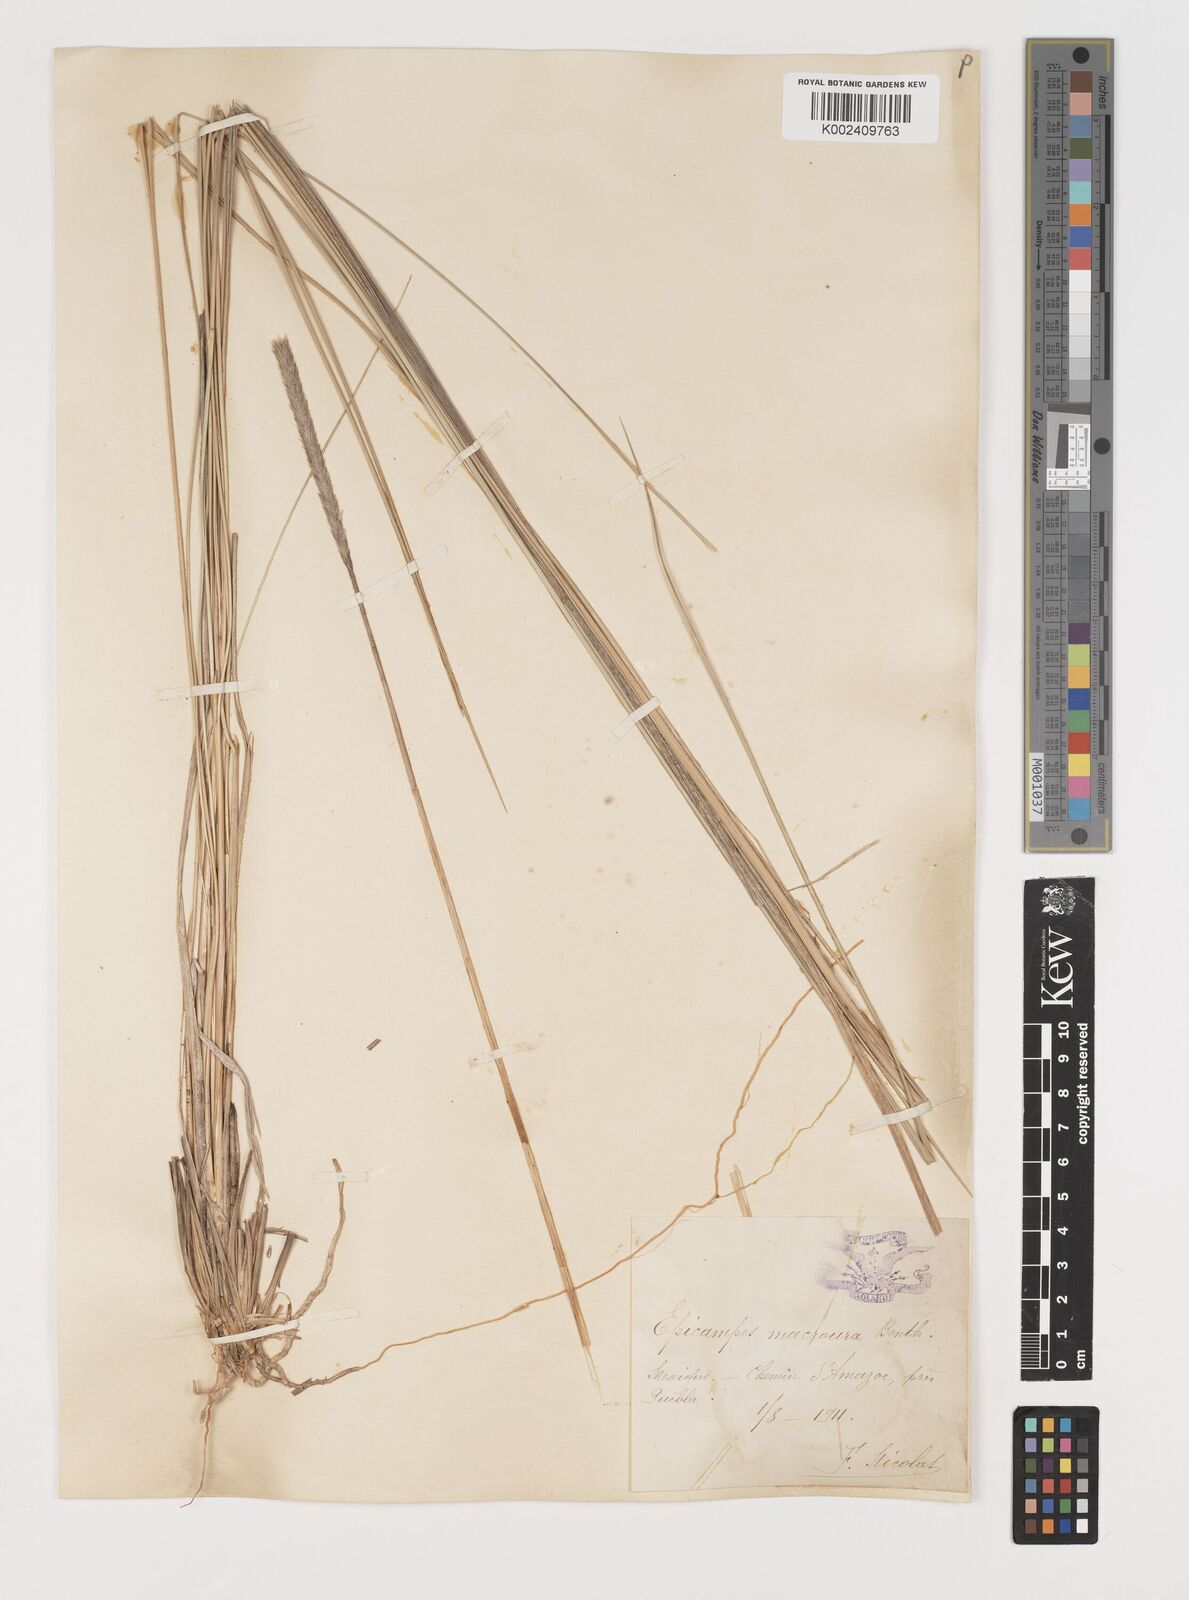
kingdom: Plantae
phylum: Tracheophyta
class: Liliopsida
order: Poales
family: Poaceae
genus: Muhlenbergia
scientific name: Muhlenbergia macroura
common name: Mexican broomroot
